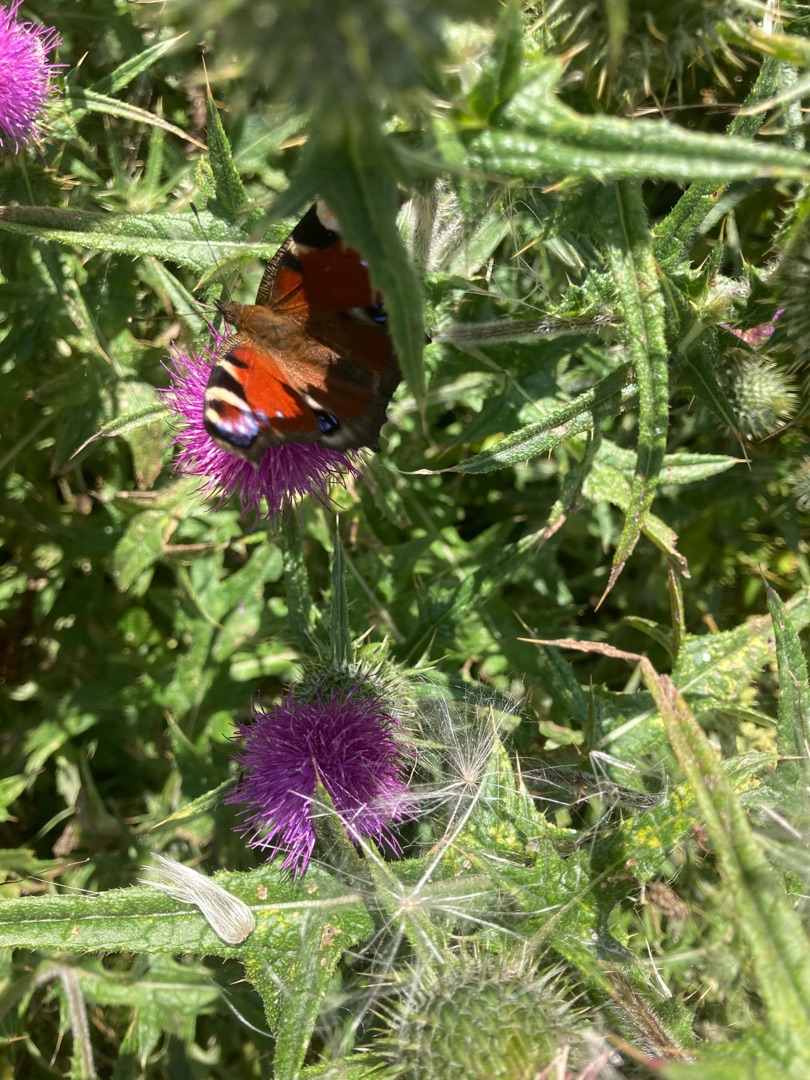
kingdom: Animalia
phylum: Arthropoda
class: Insecta
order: Lepidoptera
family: Nymphalidae
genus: Aglais
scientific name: Aglais io
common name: Dagpåfugleøje
